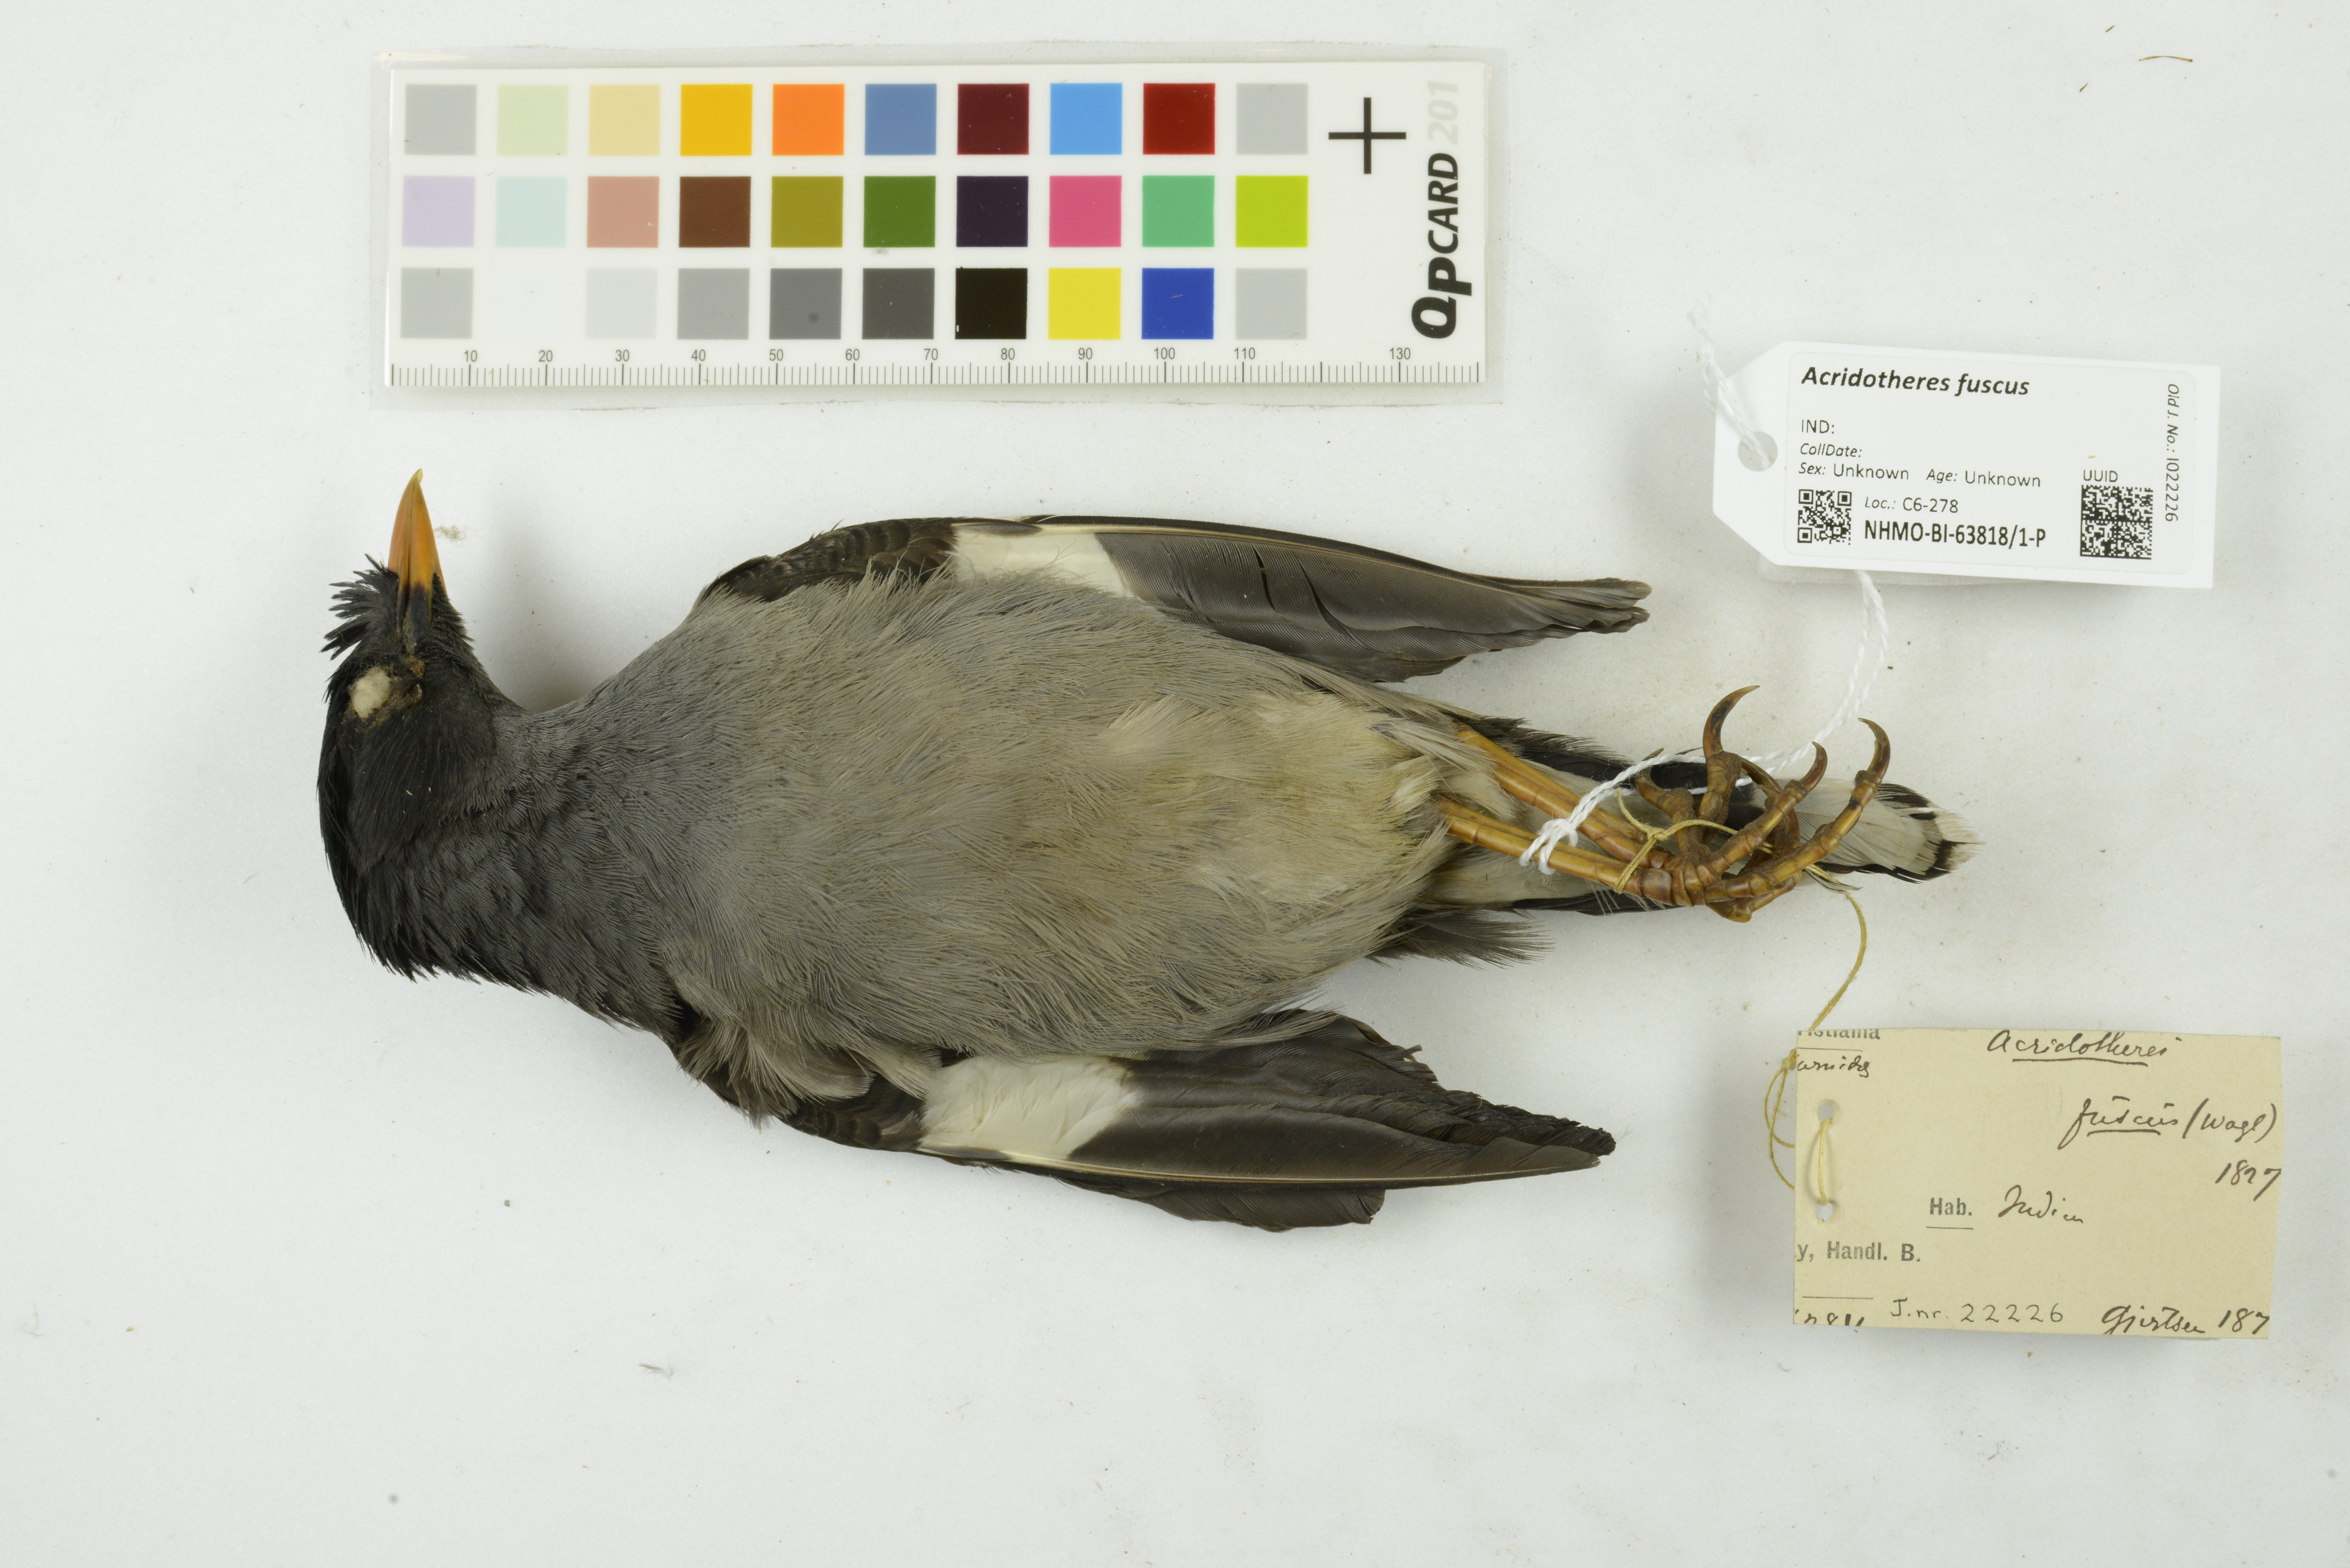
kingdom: Animalia
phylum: Chordata
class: Aves
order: Passeriformes
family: Sturnidae
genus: Acridotheres
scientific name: Acridotheres fuscus
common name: Jungle myna
